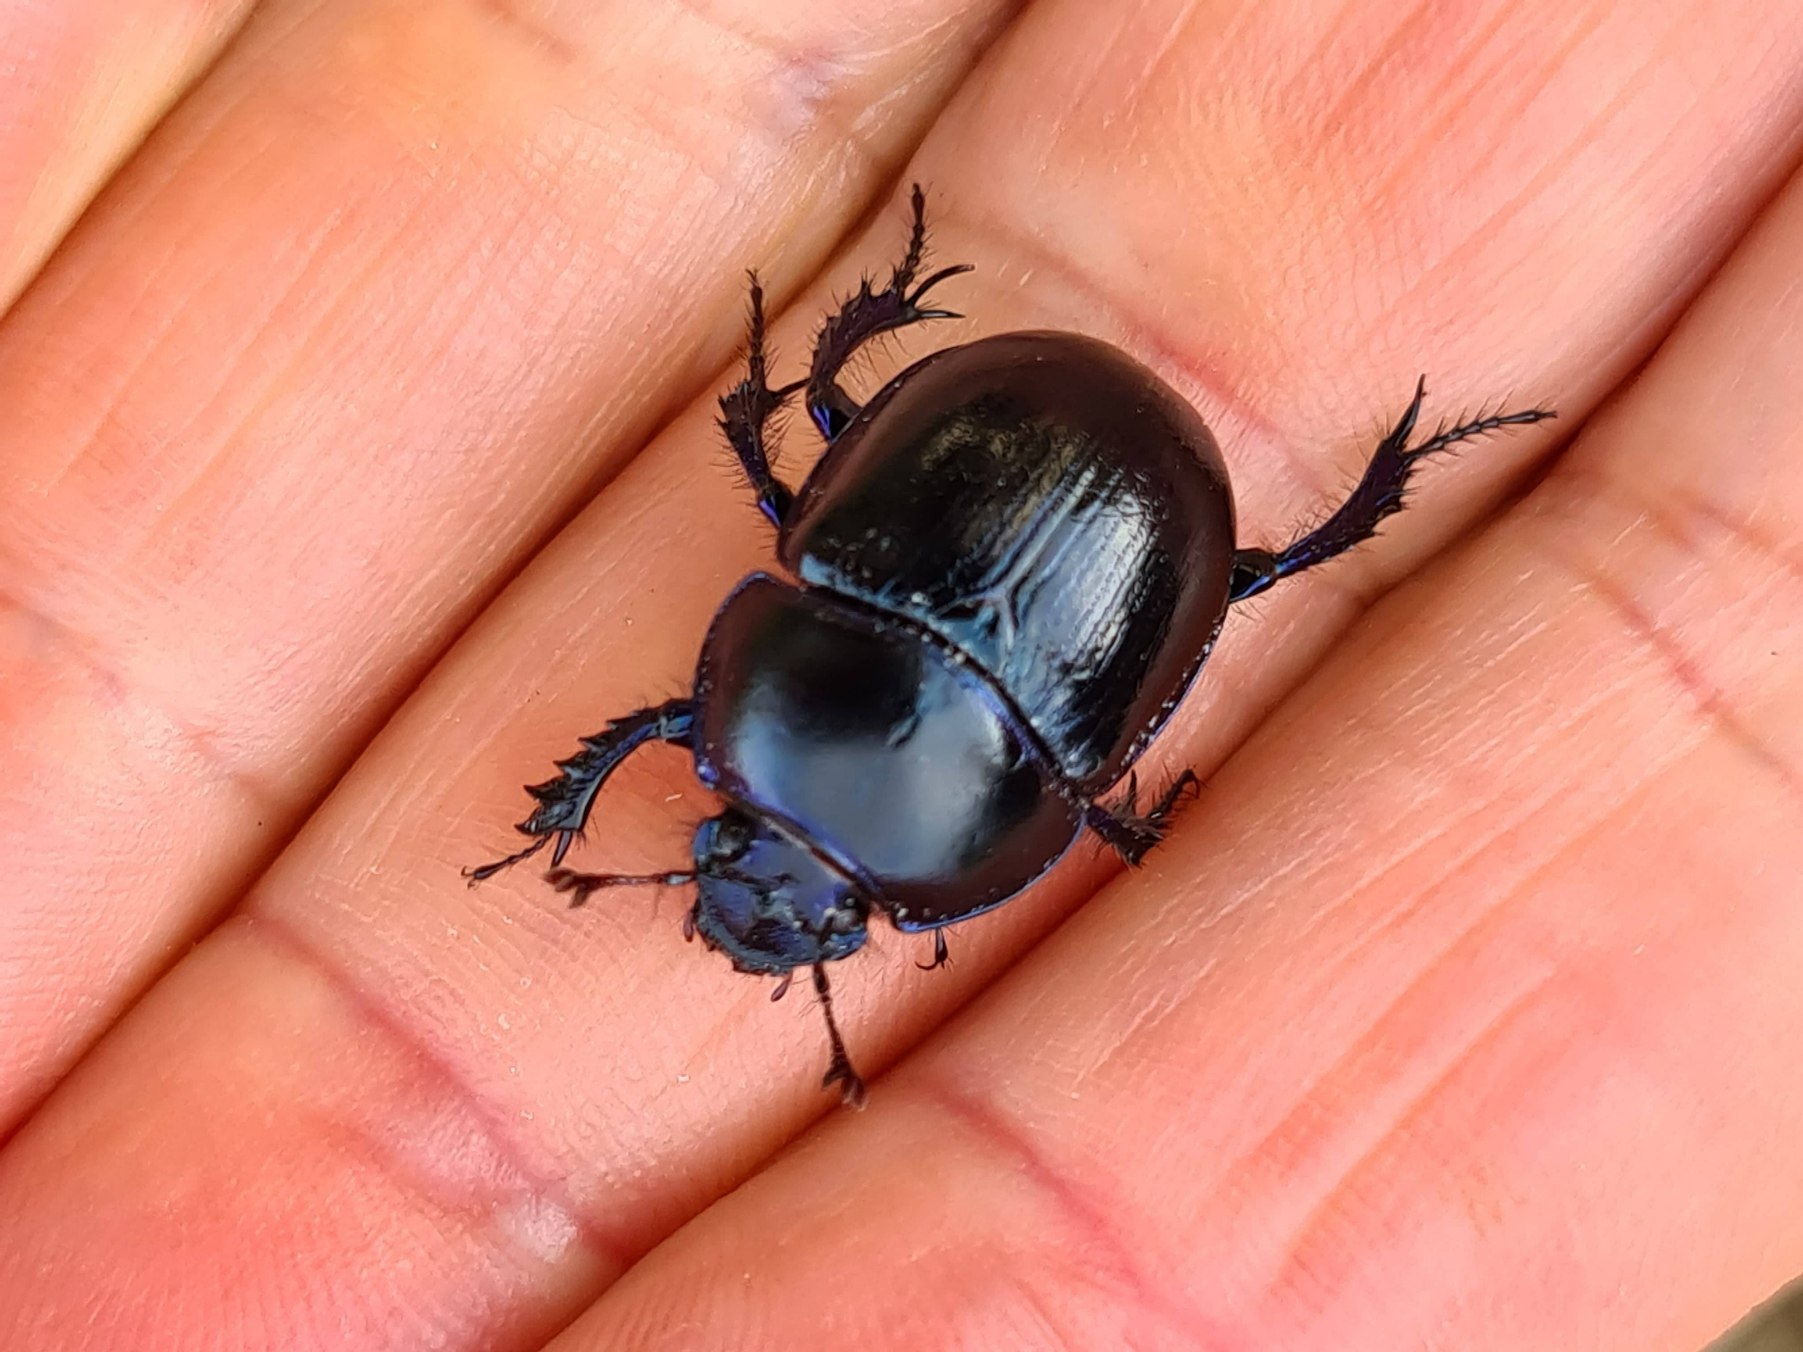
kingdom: Animalia
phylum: Arthropoda
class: Insecta
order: Coleoptera
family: Geotrupidae
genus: Anoplotrupes
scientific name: Anoplotrupes stercorosus
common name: Skovskarnbasse
